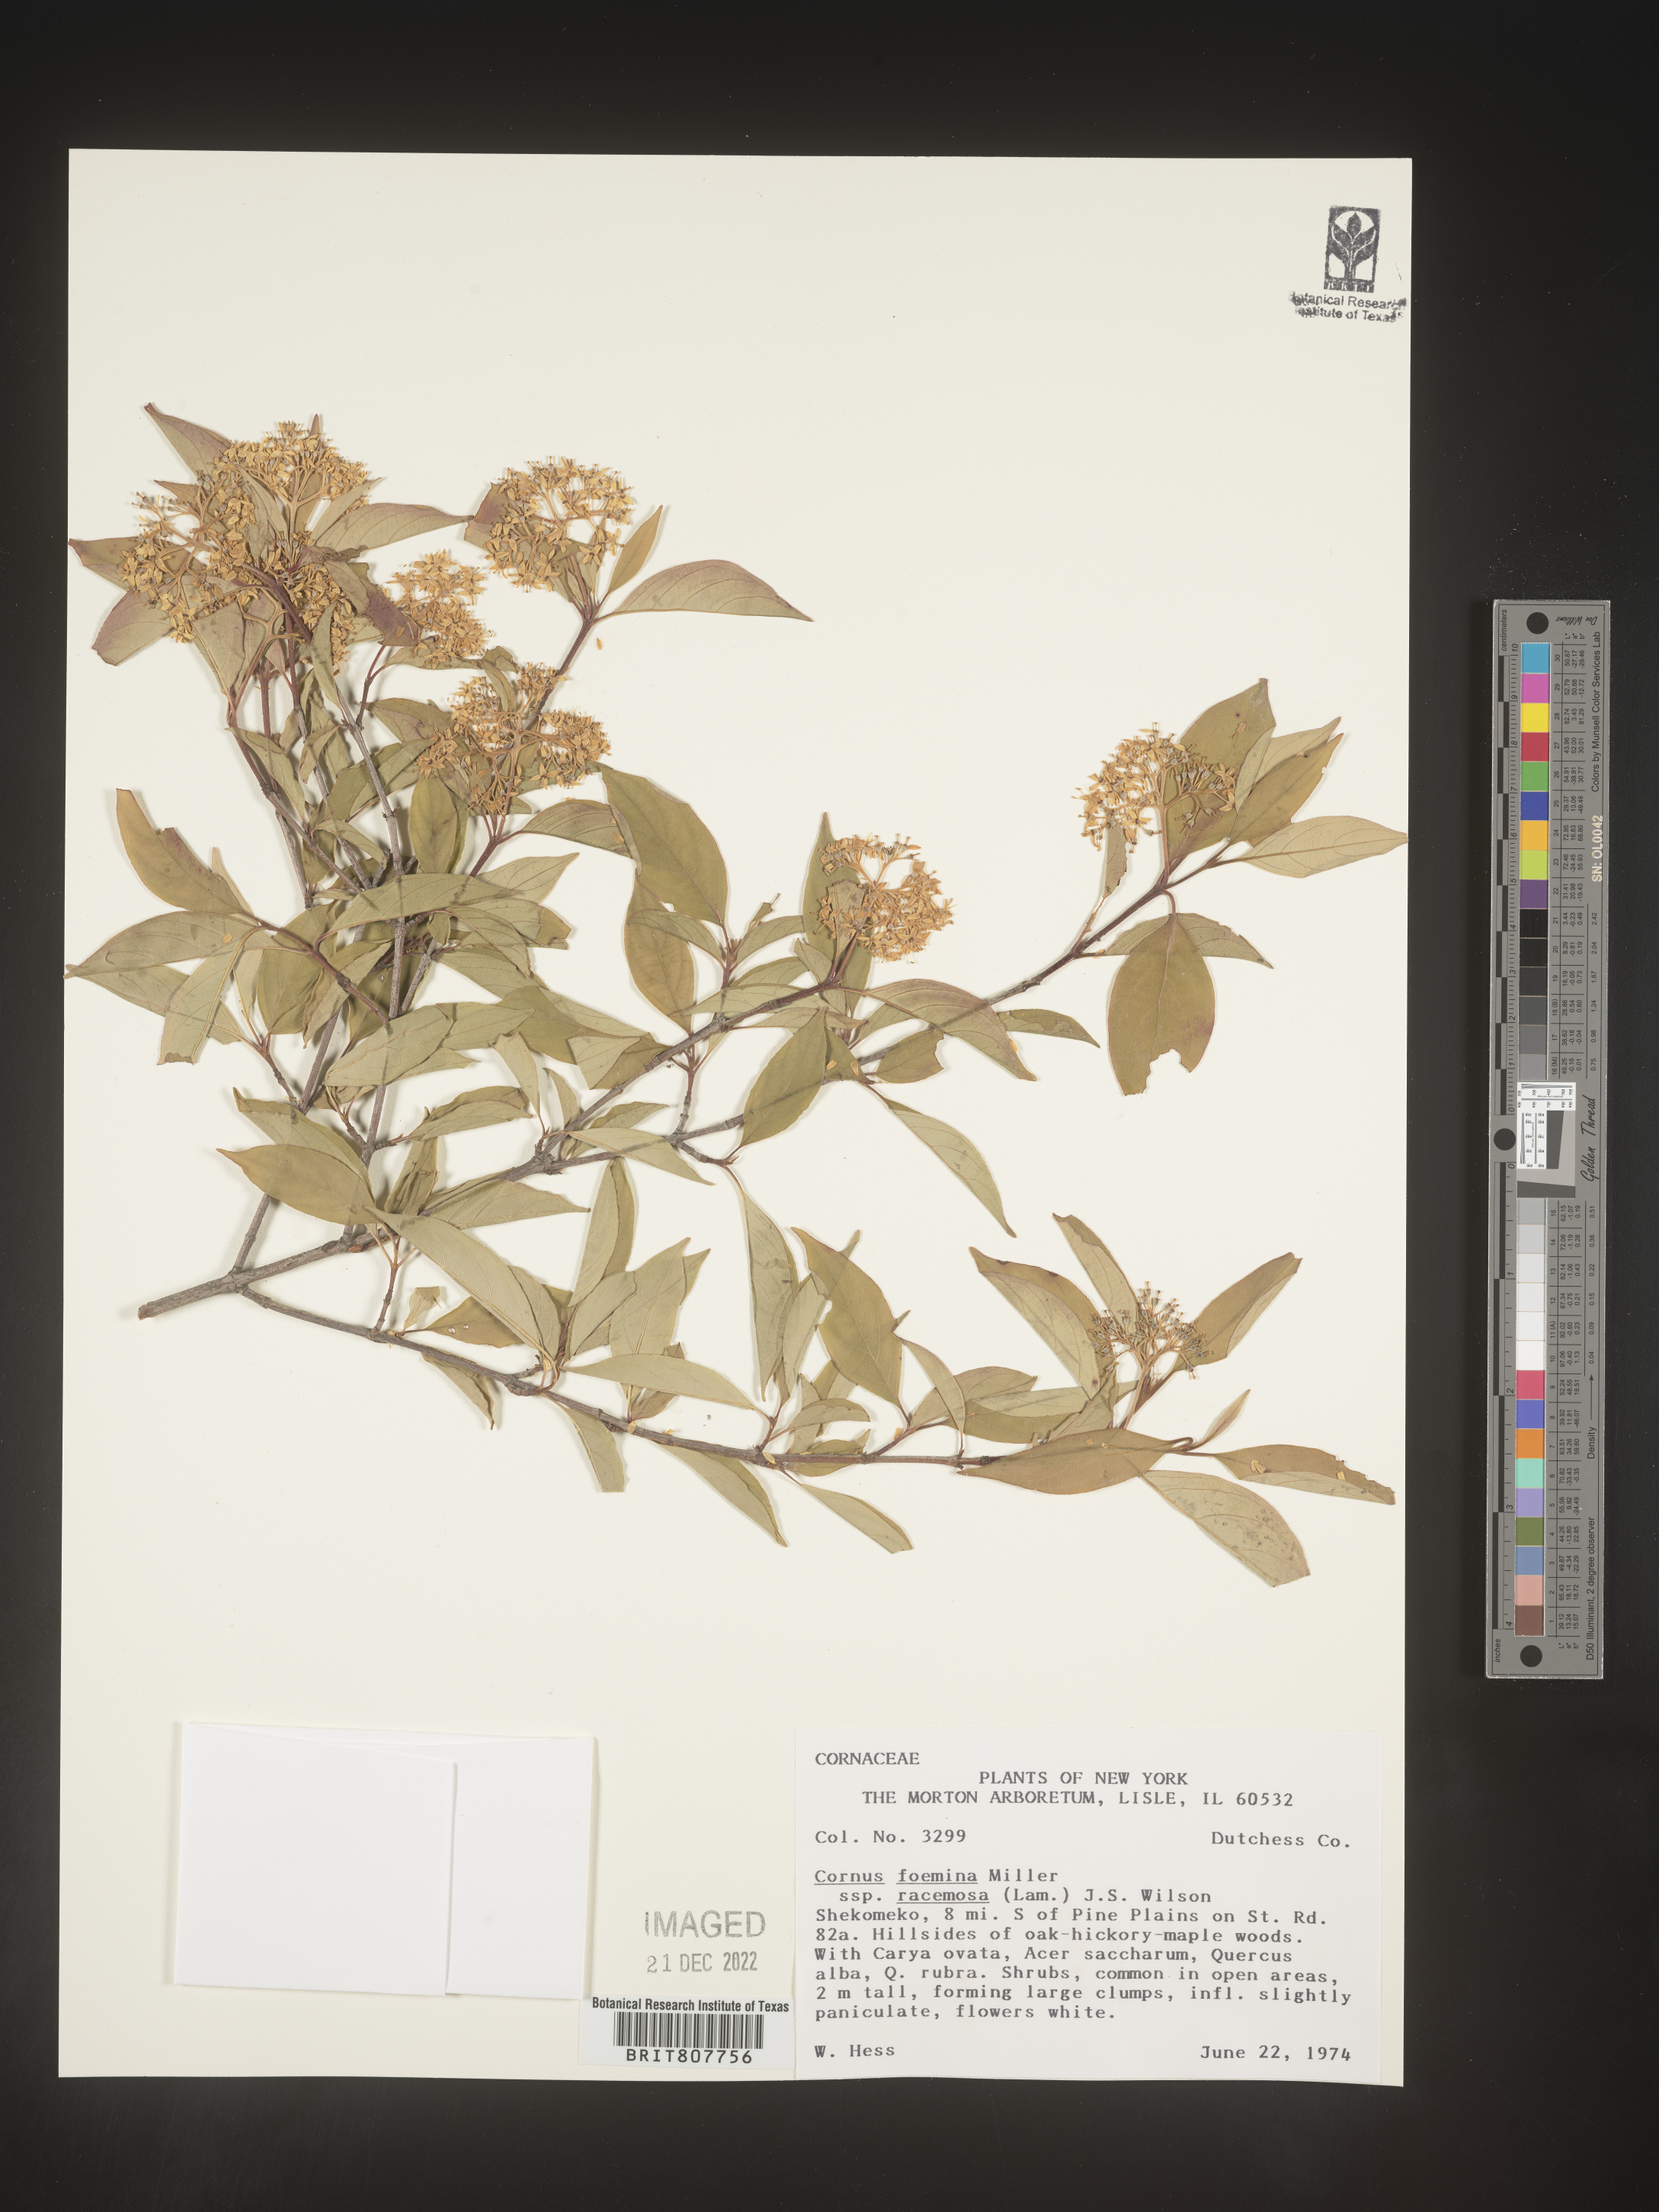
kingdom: Plantae
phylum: Tracheophyta
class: Magnoliopsida
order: Cornales
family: Cornaceae
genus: Cornus
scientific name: Cornus foemina
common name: Swamp dogwood
